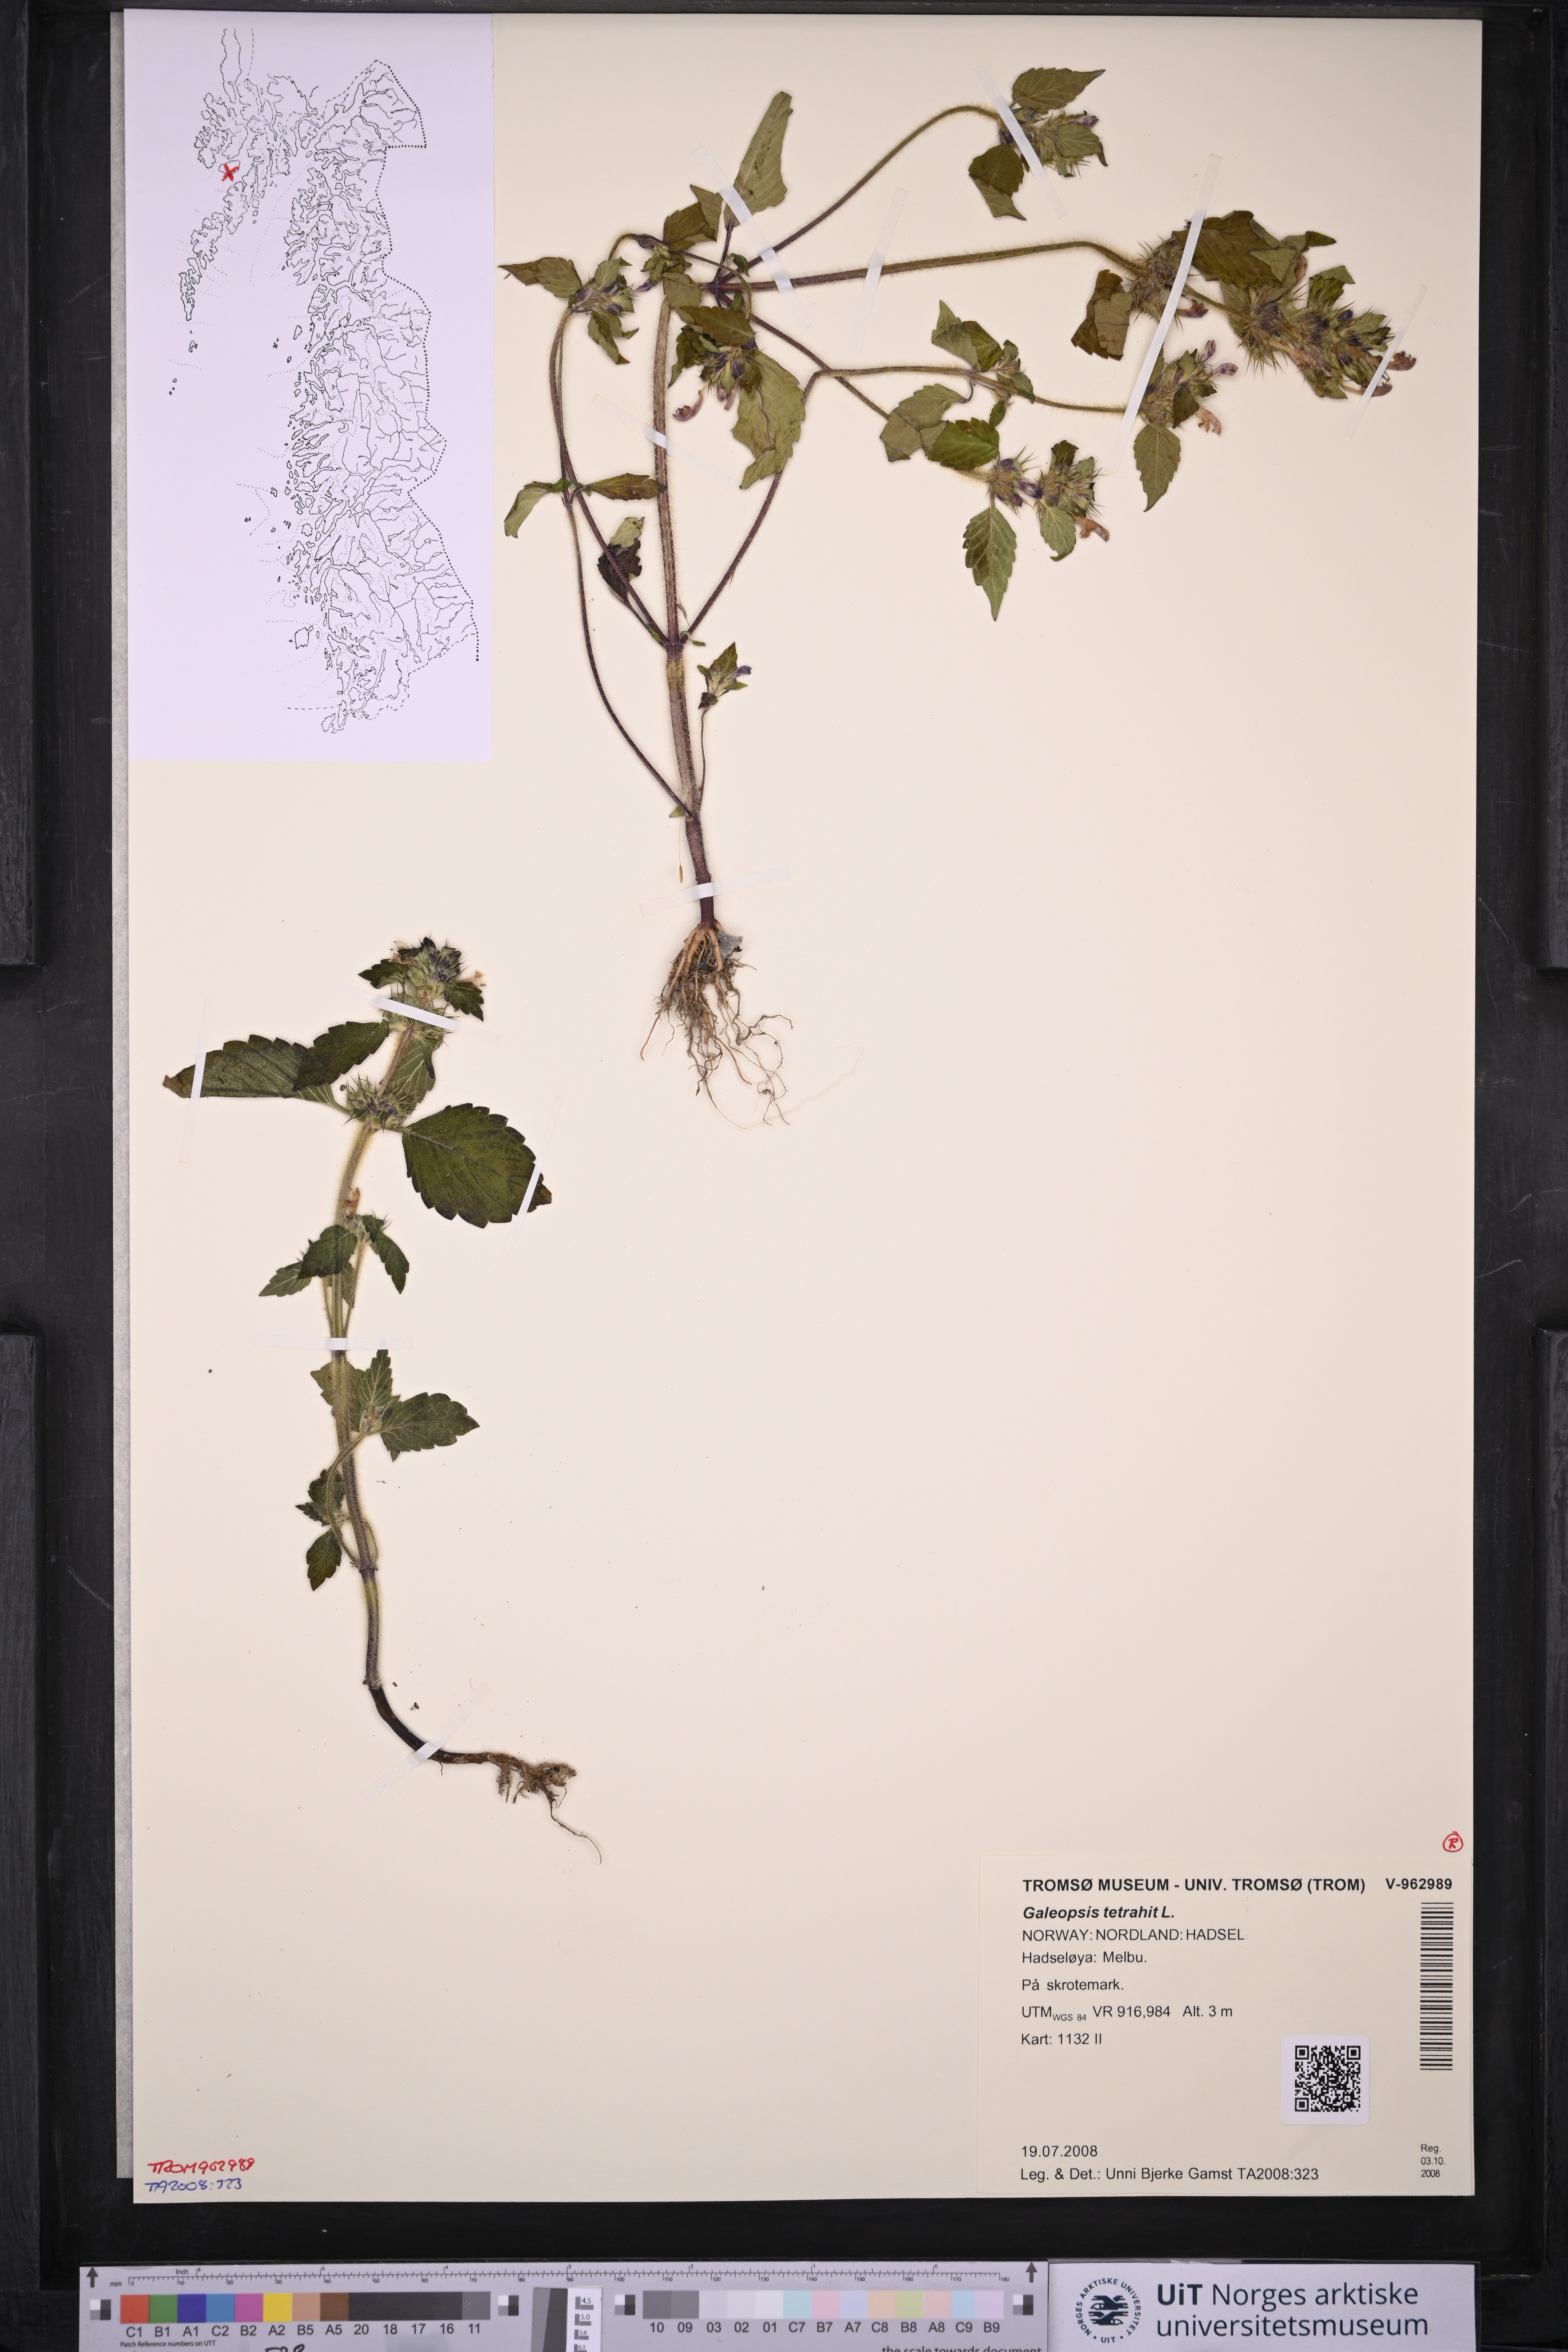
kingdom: Plantae
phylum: Tracheophyta
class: Magnoliopsida
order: Lamiales
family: Lamiaceae
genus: Galeopsis
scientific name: Galeopsis tetrahit
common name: Common hemp-nettle
